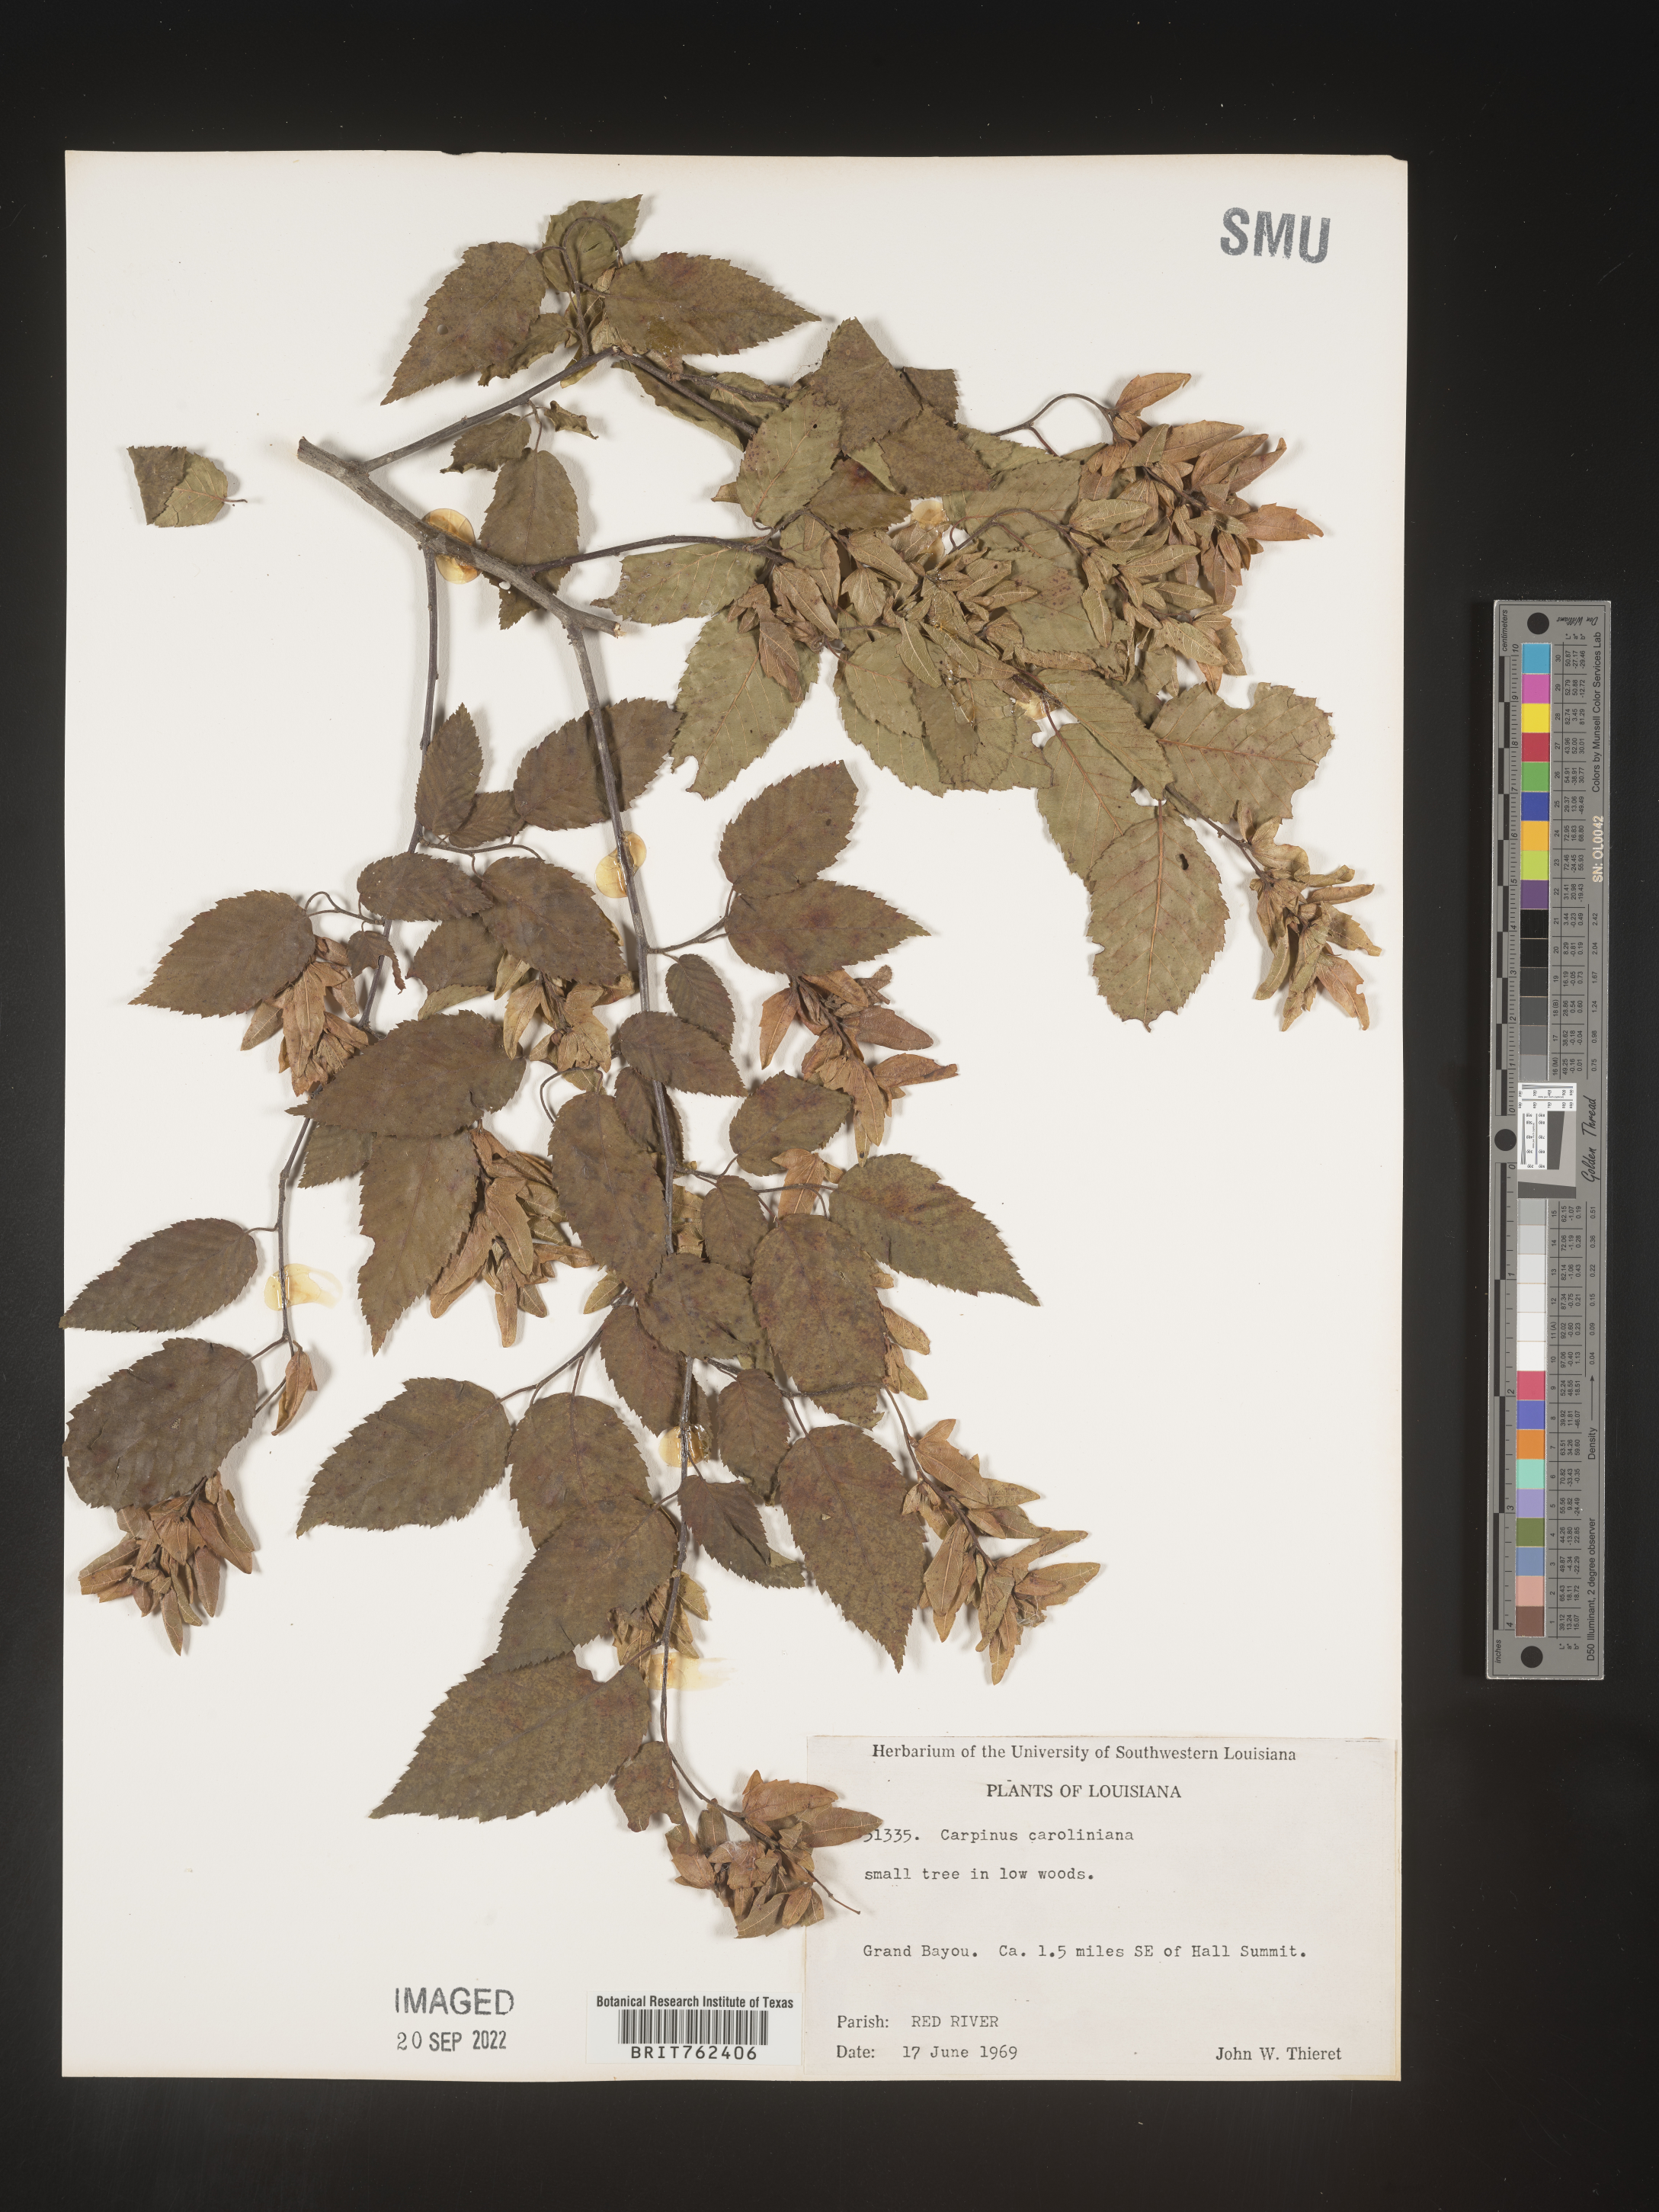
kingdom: Plantae
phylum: Tracheophyta
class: Magnoliopsida
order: Fagales
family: Betulaceae
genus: Carpinus
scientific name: Carpinus caroliniana
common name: American hornbeam
